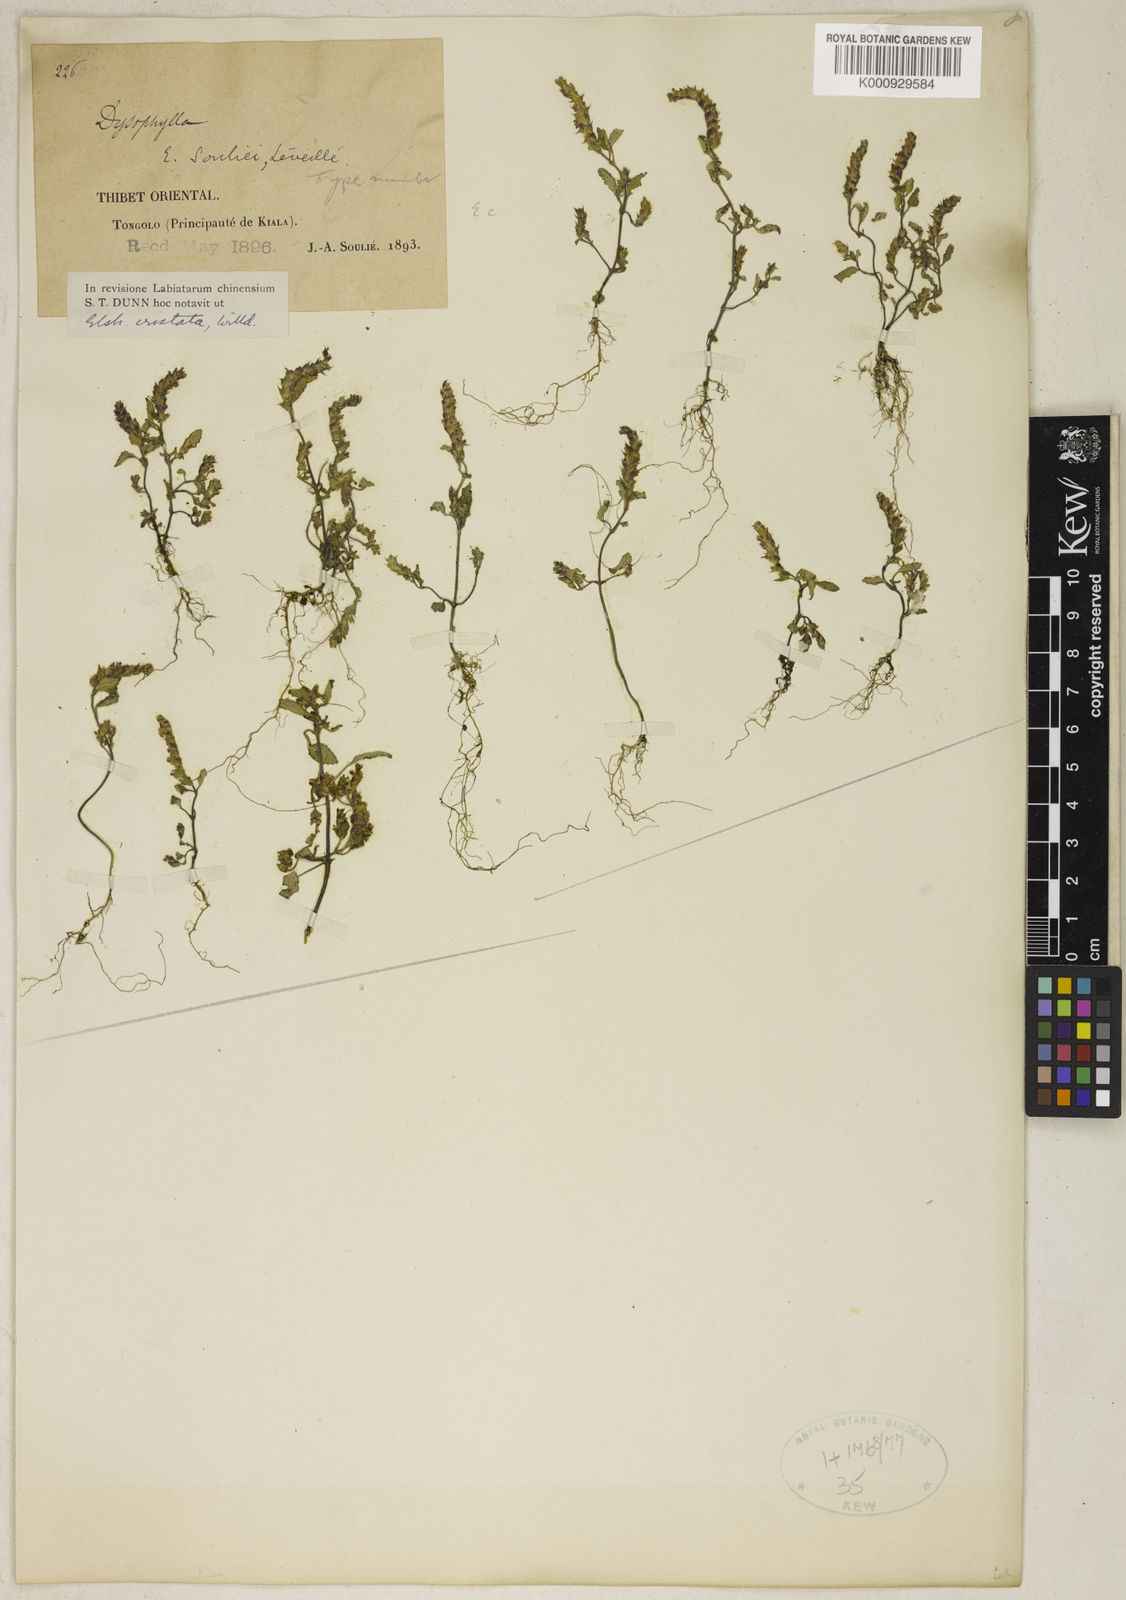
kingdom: Plantae
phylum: Tracheophyta
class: Magnoliopsida
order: Lamiales
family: Lamiaceae
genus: Elsholtzia
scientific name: Elsholtzia ciliata
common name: Ciliate elsholtzia
